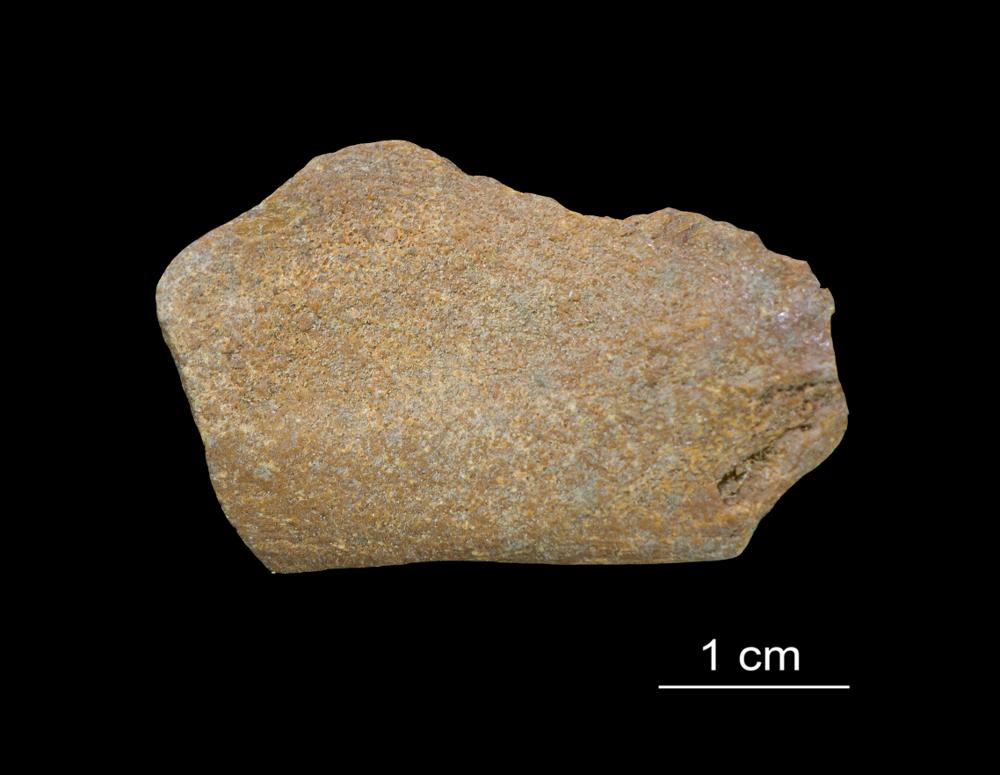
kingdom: Animalia
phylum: Chordata
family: Asterolepididae
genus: Asterolepis
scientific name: Asterolepis ornata
